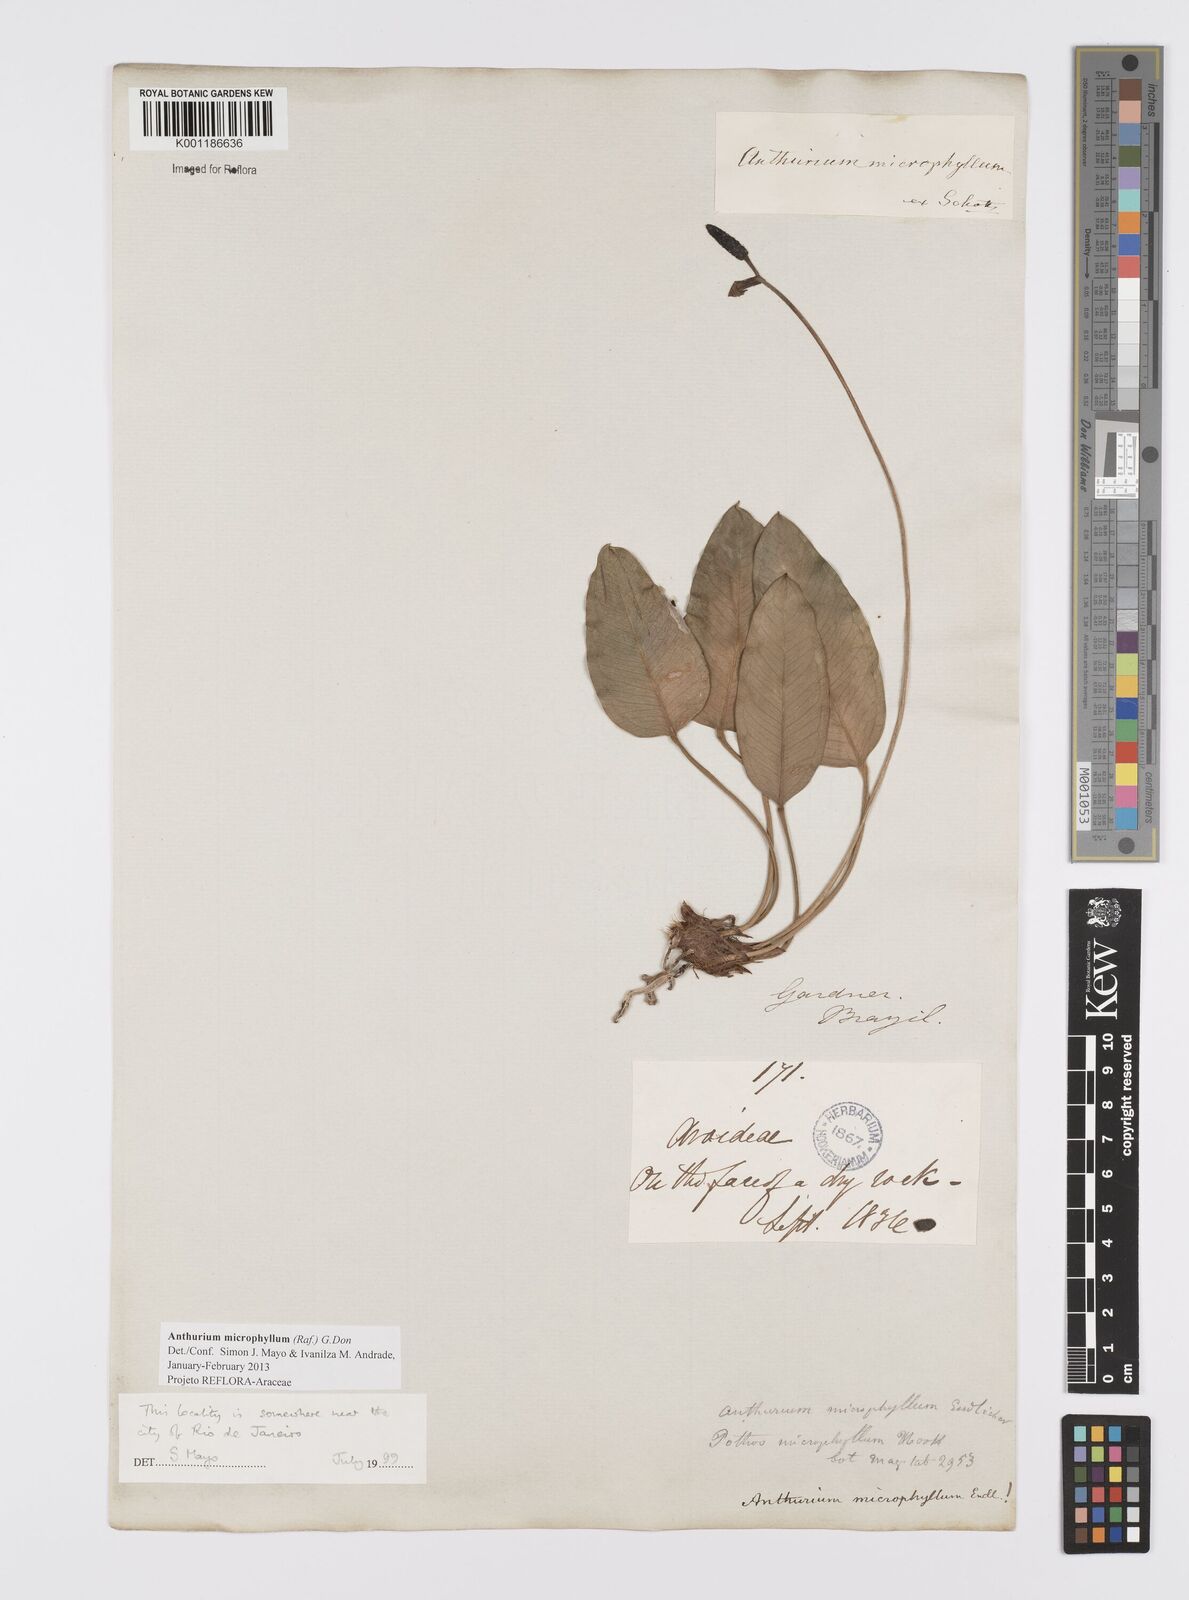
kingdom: Plantae
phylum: Tracheophyta
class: Liliopsida
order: Alismatales
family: Araceae
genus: Anthurium
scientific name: Anthurium microphyllum
